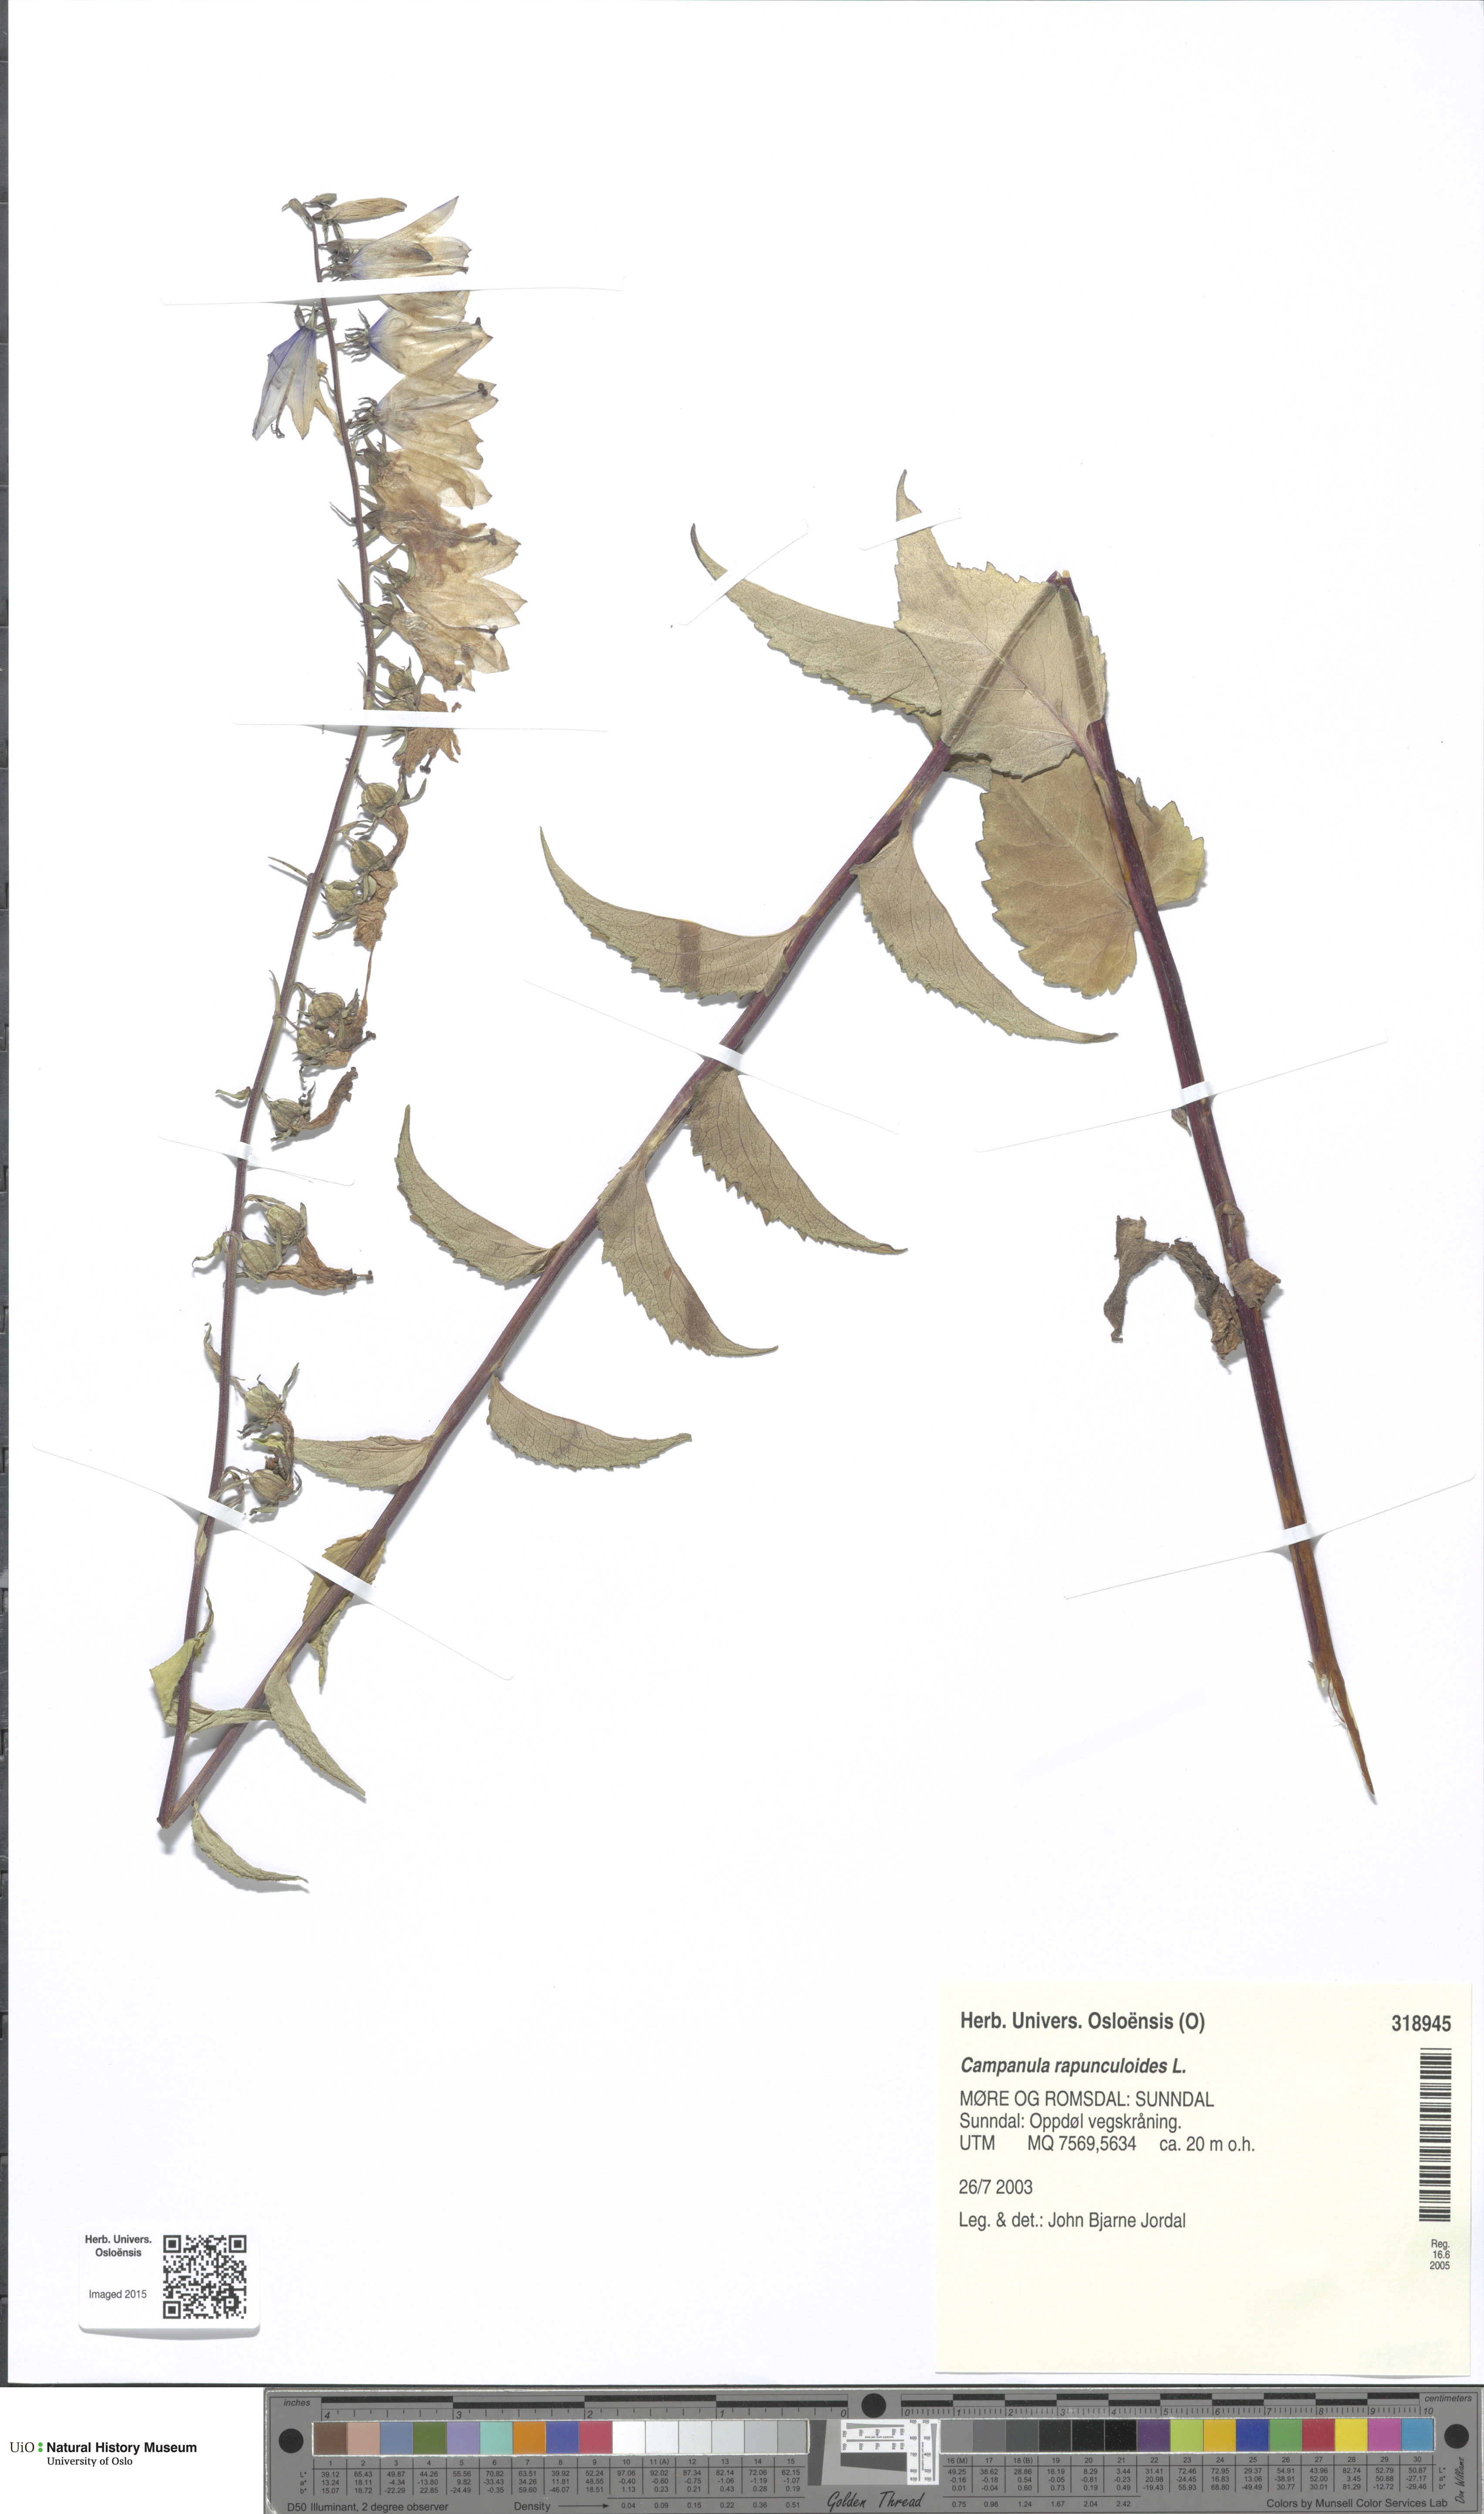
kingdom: Plantae
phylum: Tracheophyta
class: Magnoliopsida
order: Asterales
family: Campanulaceae
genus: Campanula
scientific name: Campanula rapunculoides
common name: Creeping bellflower
